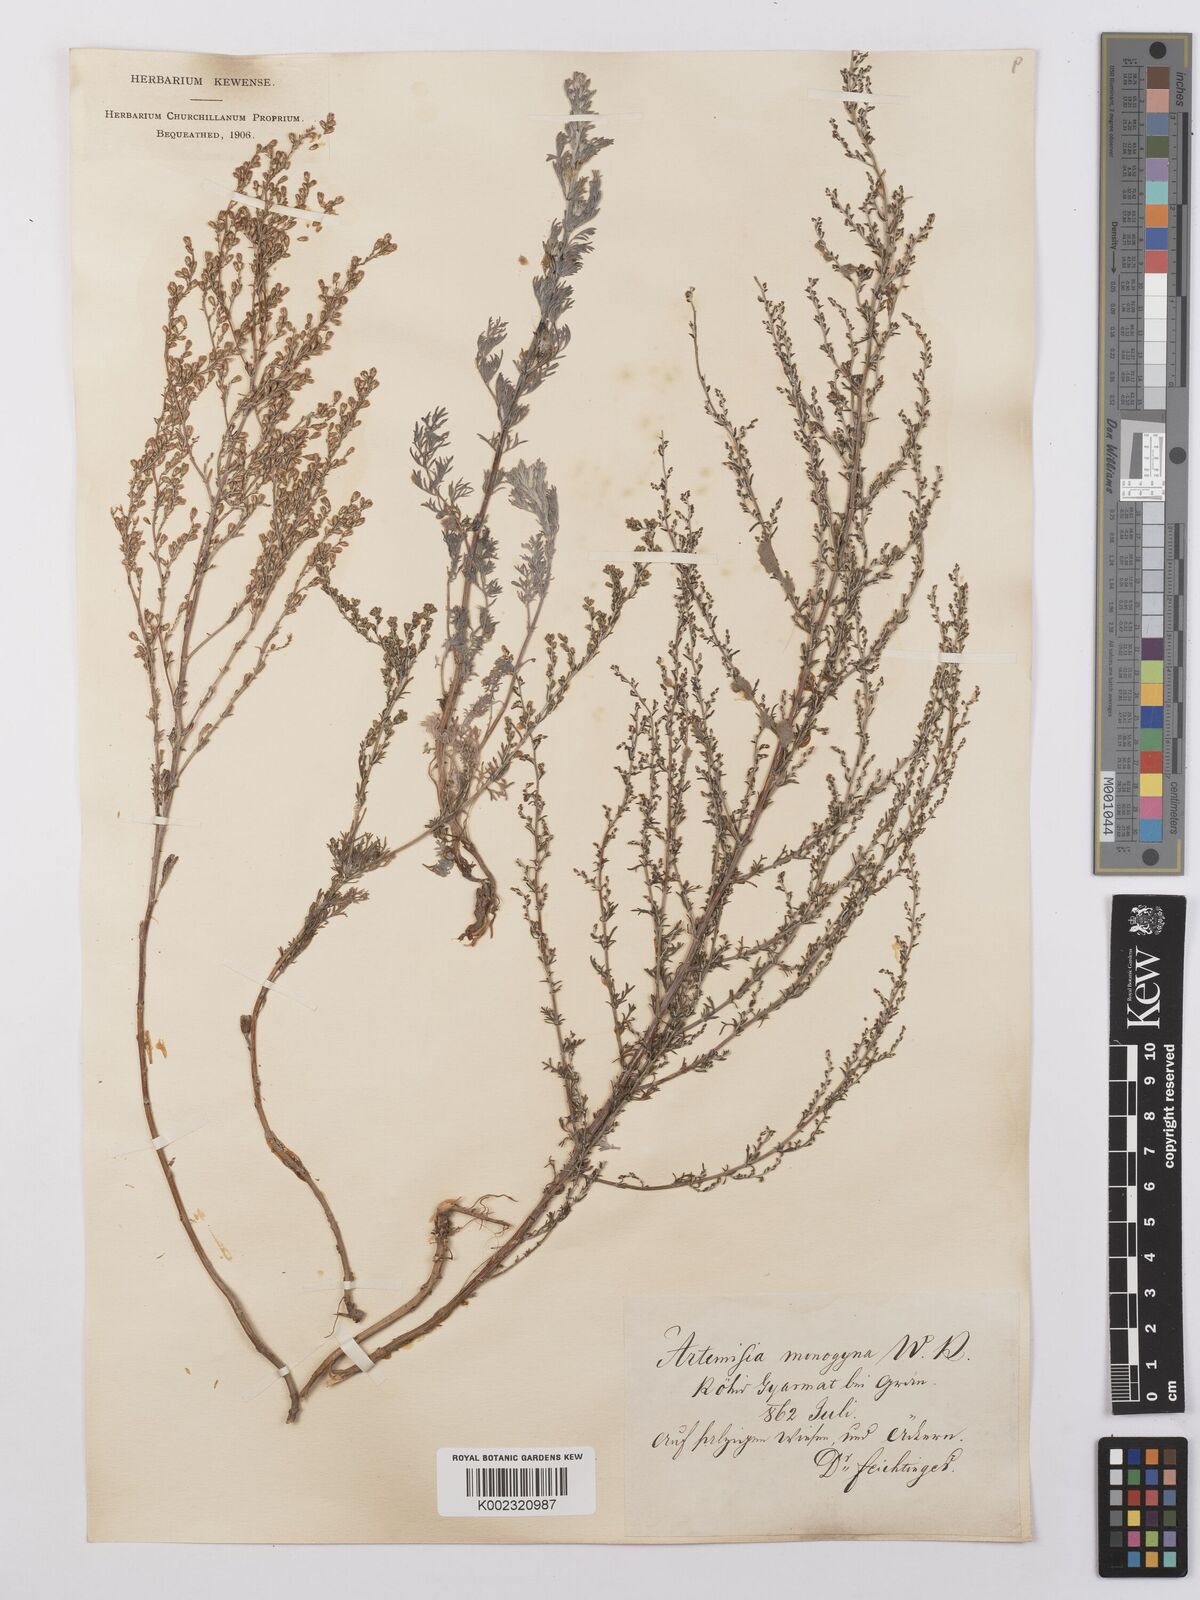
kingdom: Plantae
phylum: Tracheophyta
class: Magnoliopsida
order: Asterales
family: Asteraceae
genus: Artemisia
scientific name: Artemisia santonicum
